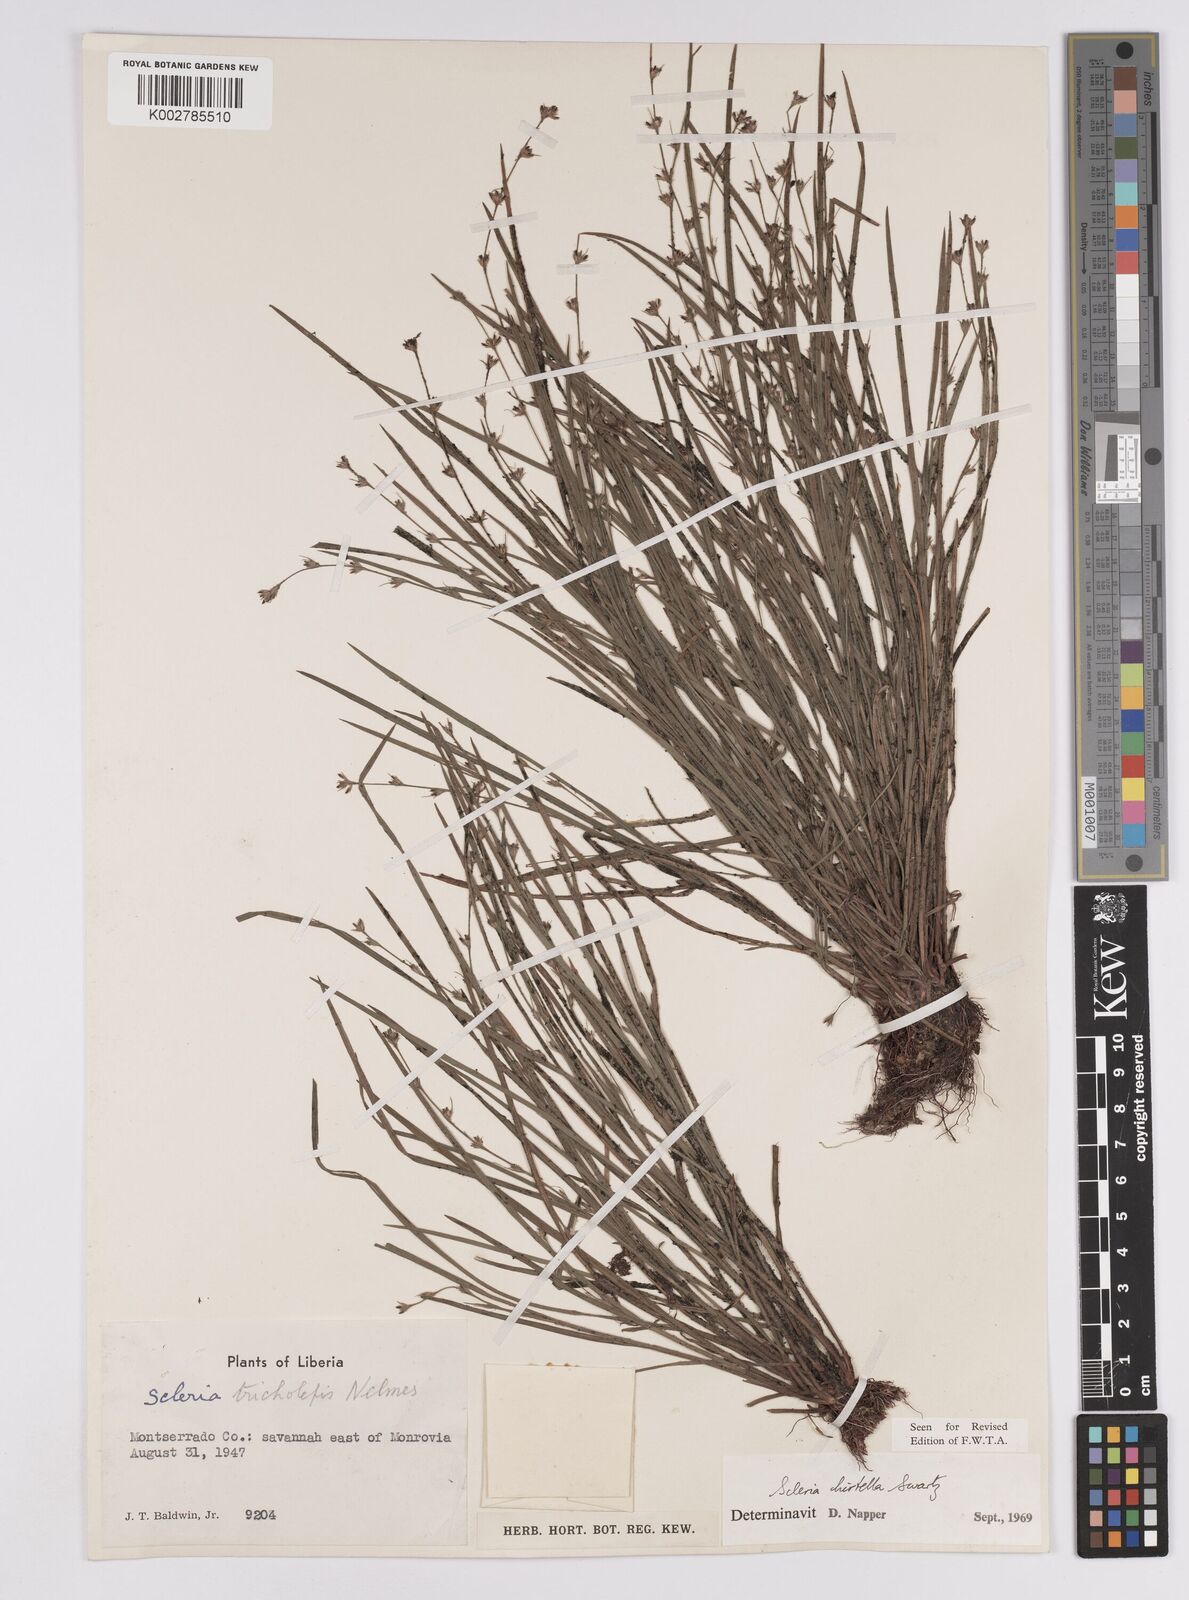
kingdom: Plantae
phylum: Tracheophyta
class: Liliopsida
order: Poales
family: Cyperaceae
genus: Scleria
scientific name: Scleria tricholepis
